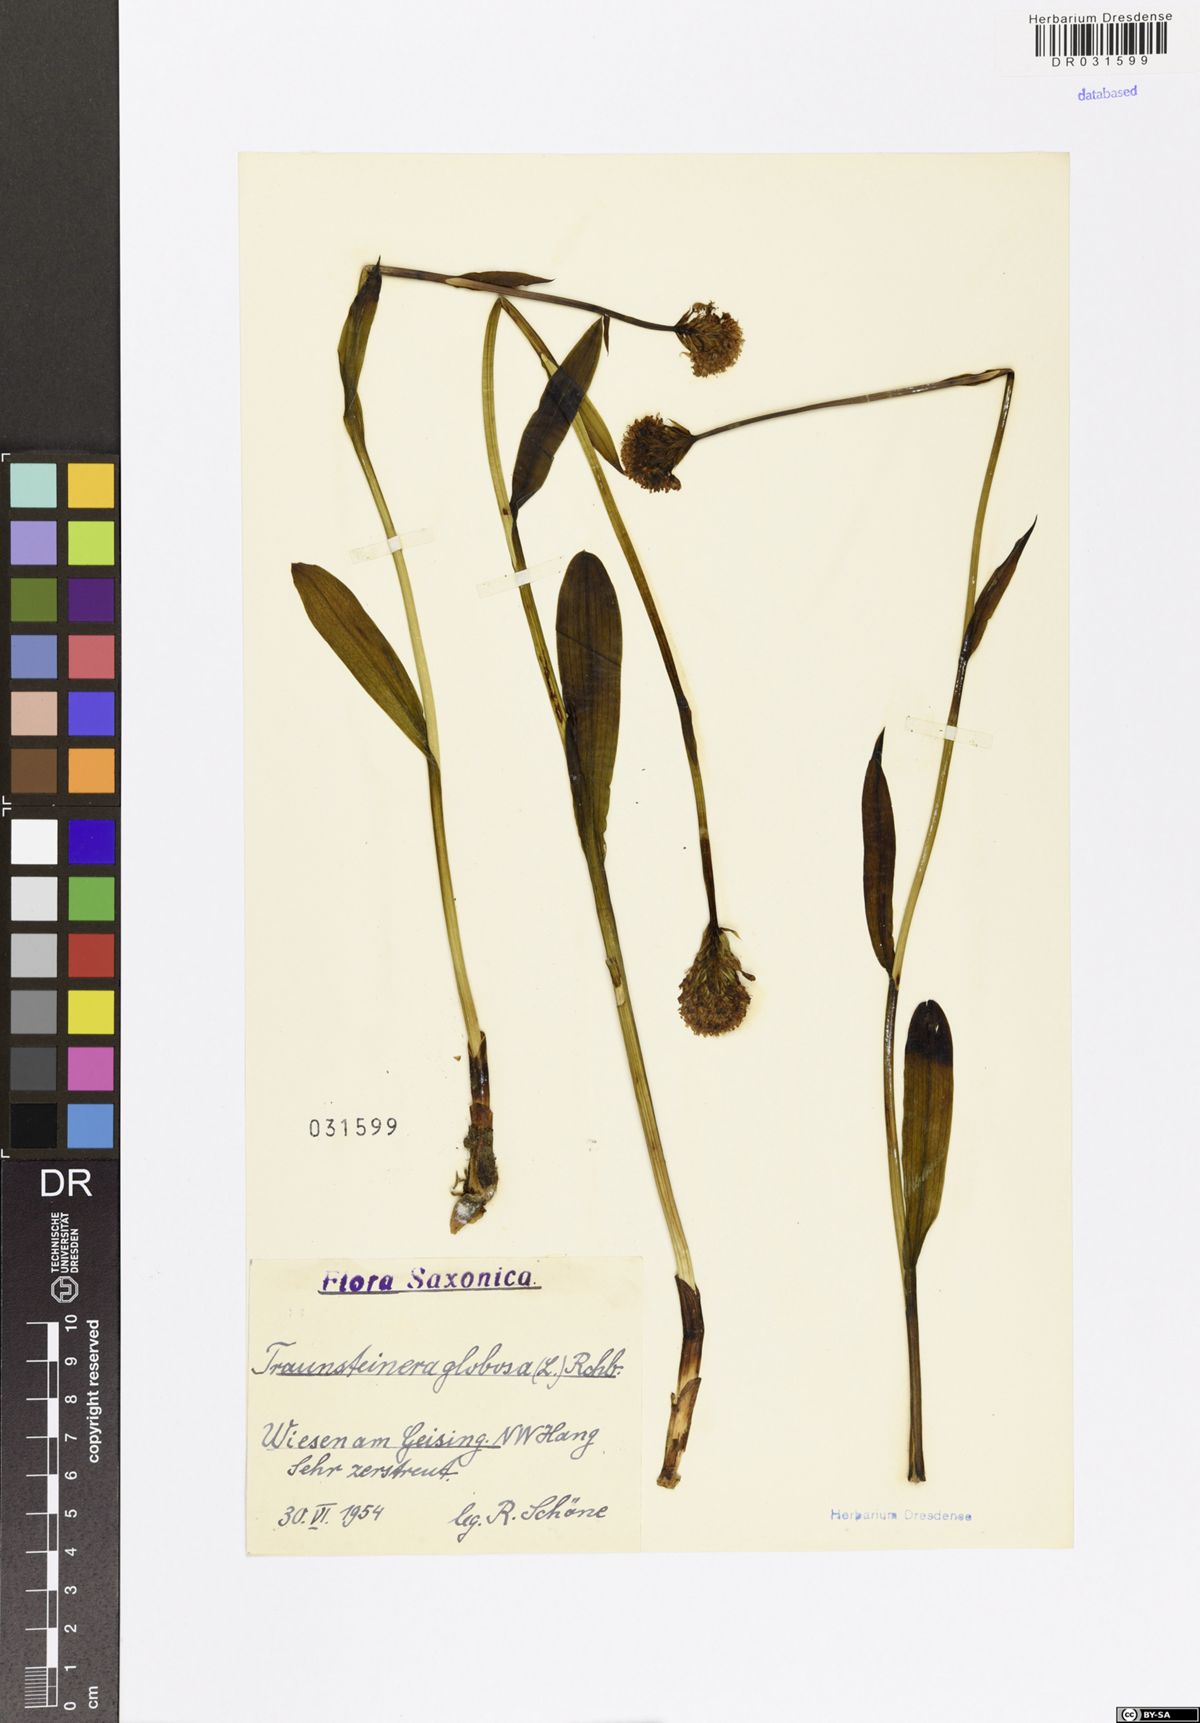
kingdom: Plantae
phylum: Tracheophyta
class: Liliopsida
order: Asparagales
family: Orchidaceae
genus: Traunsteinera
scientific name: Traunsteinera globosa
